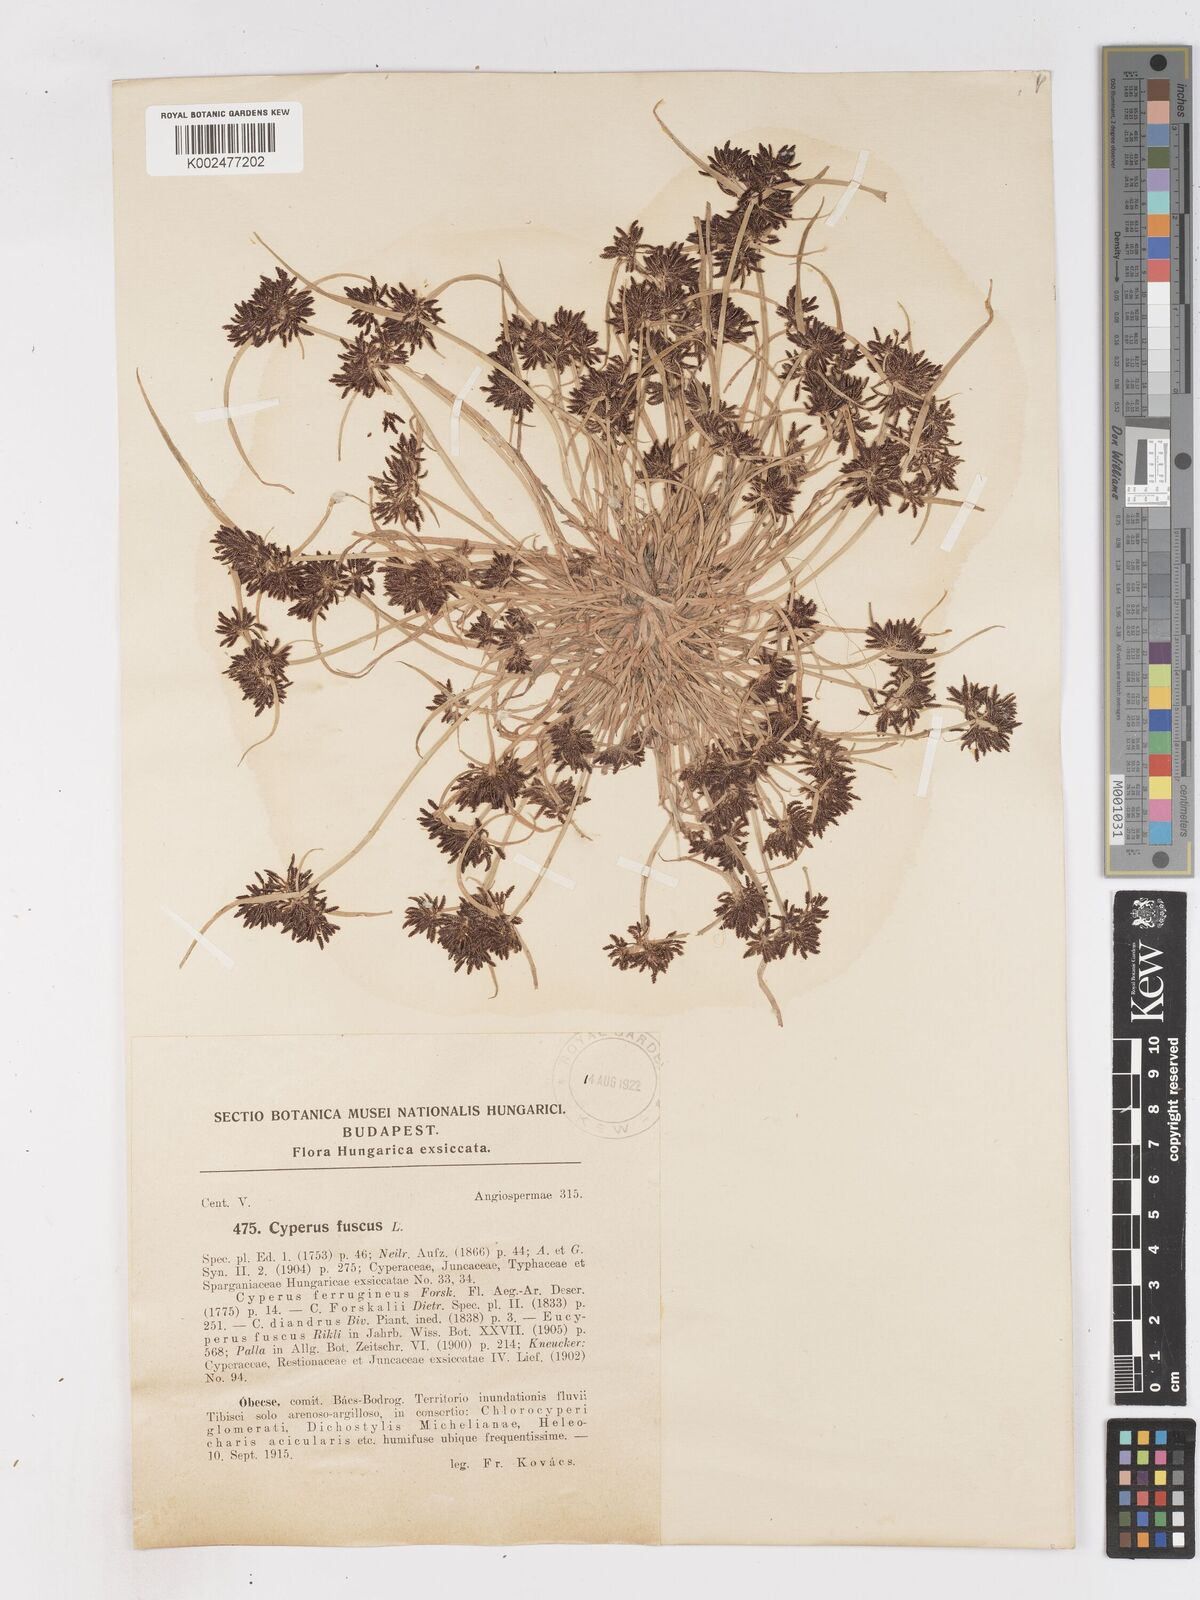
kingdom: Plantae
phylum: Tracheophyta
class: Liliopsida
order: Poales
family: Cyperaceae
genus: Cyperus
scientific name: Cyperus fuscus
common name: Brown galingale
